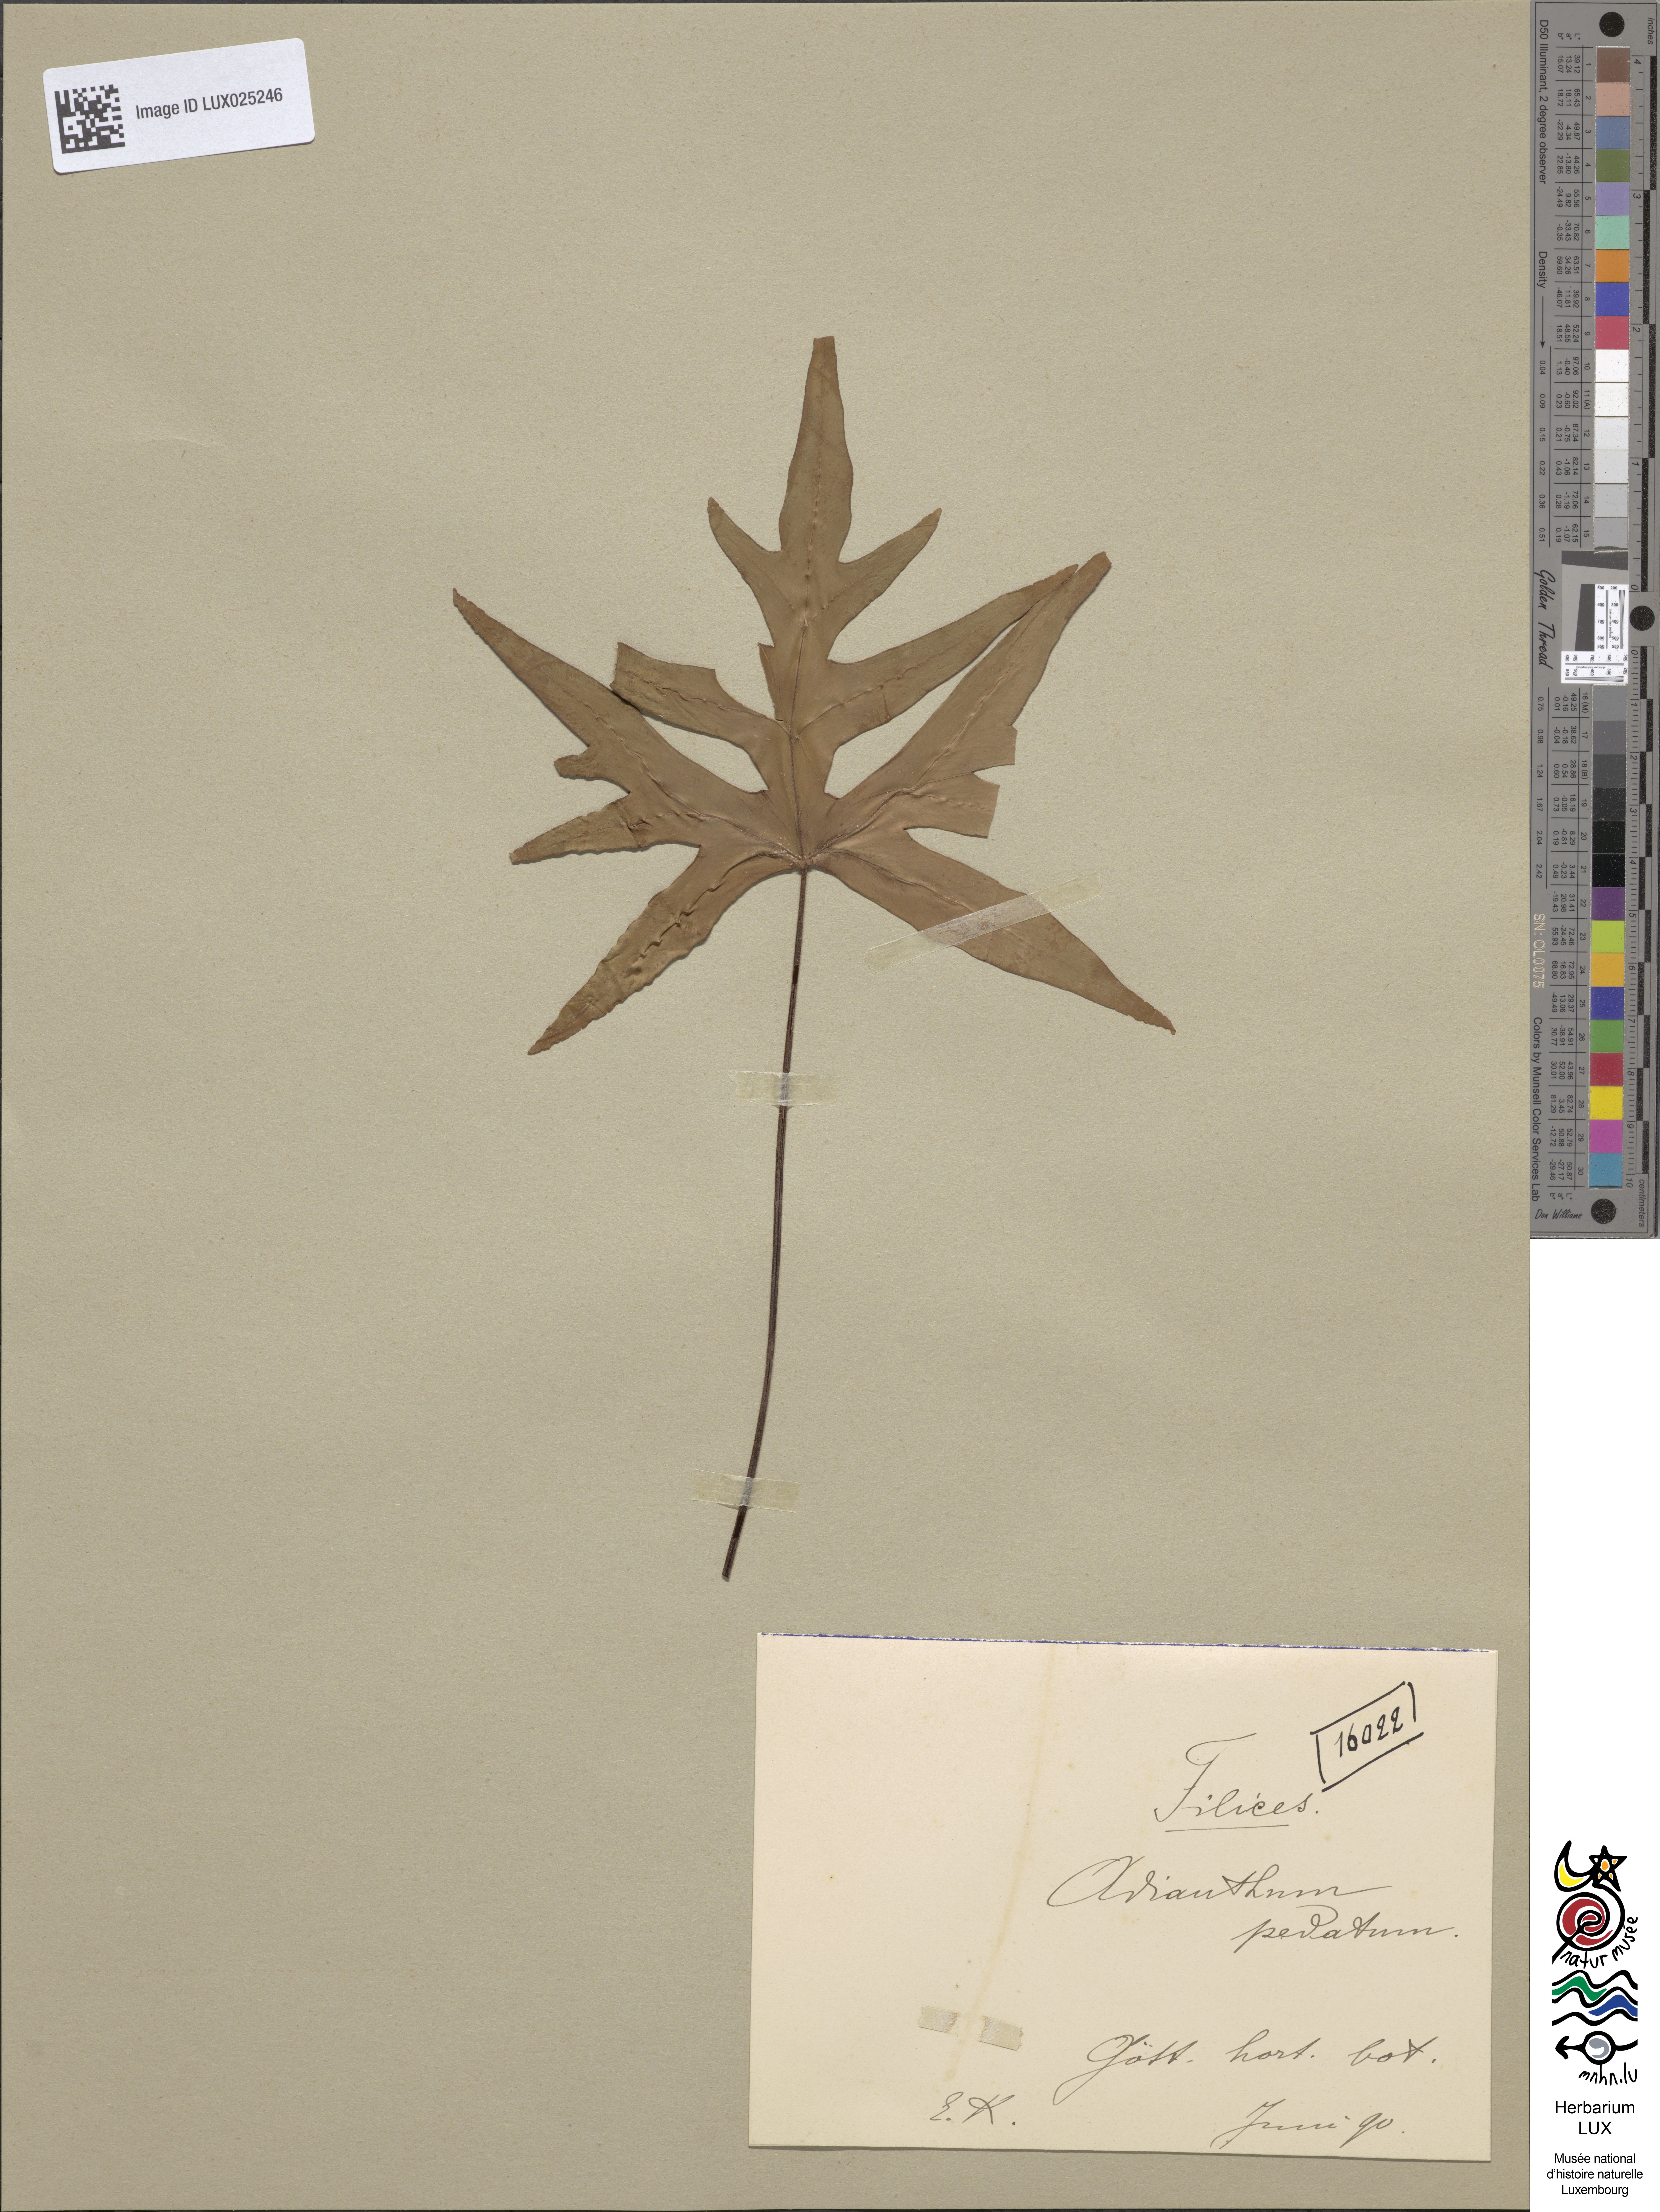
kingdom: Plantae
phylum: Tracheophyta
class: Polypodiopsida
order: Polypodiales
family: Pteridaceae
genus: Adiantum
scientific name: Adiantum pedatum
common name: Five-finger fern
